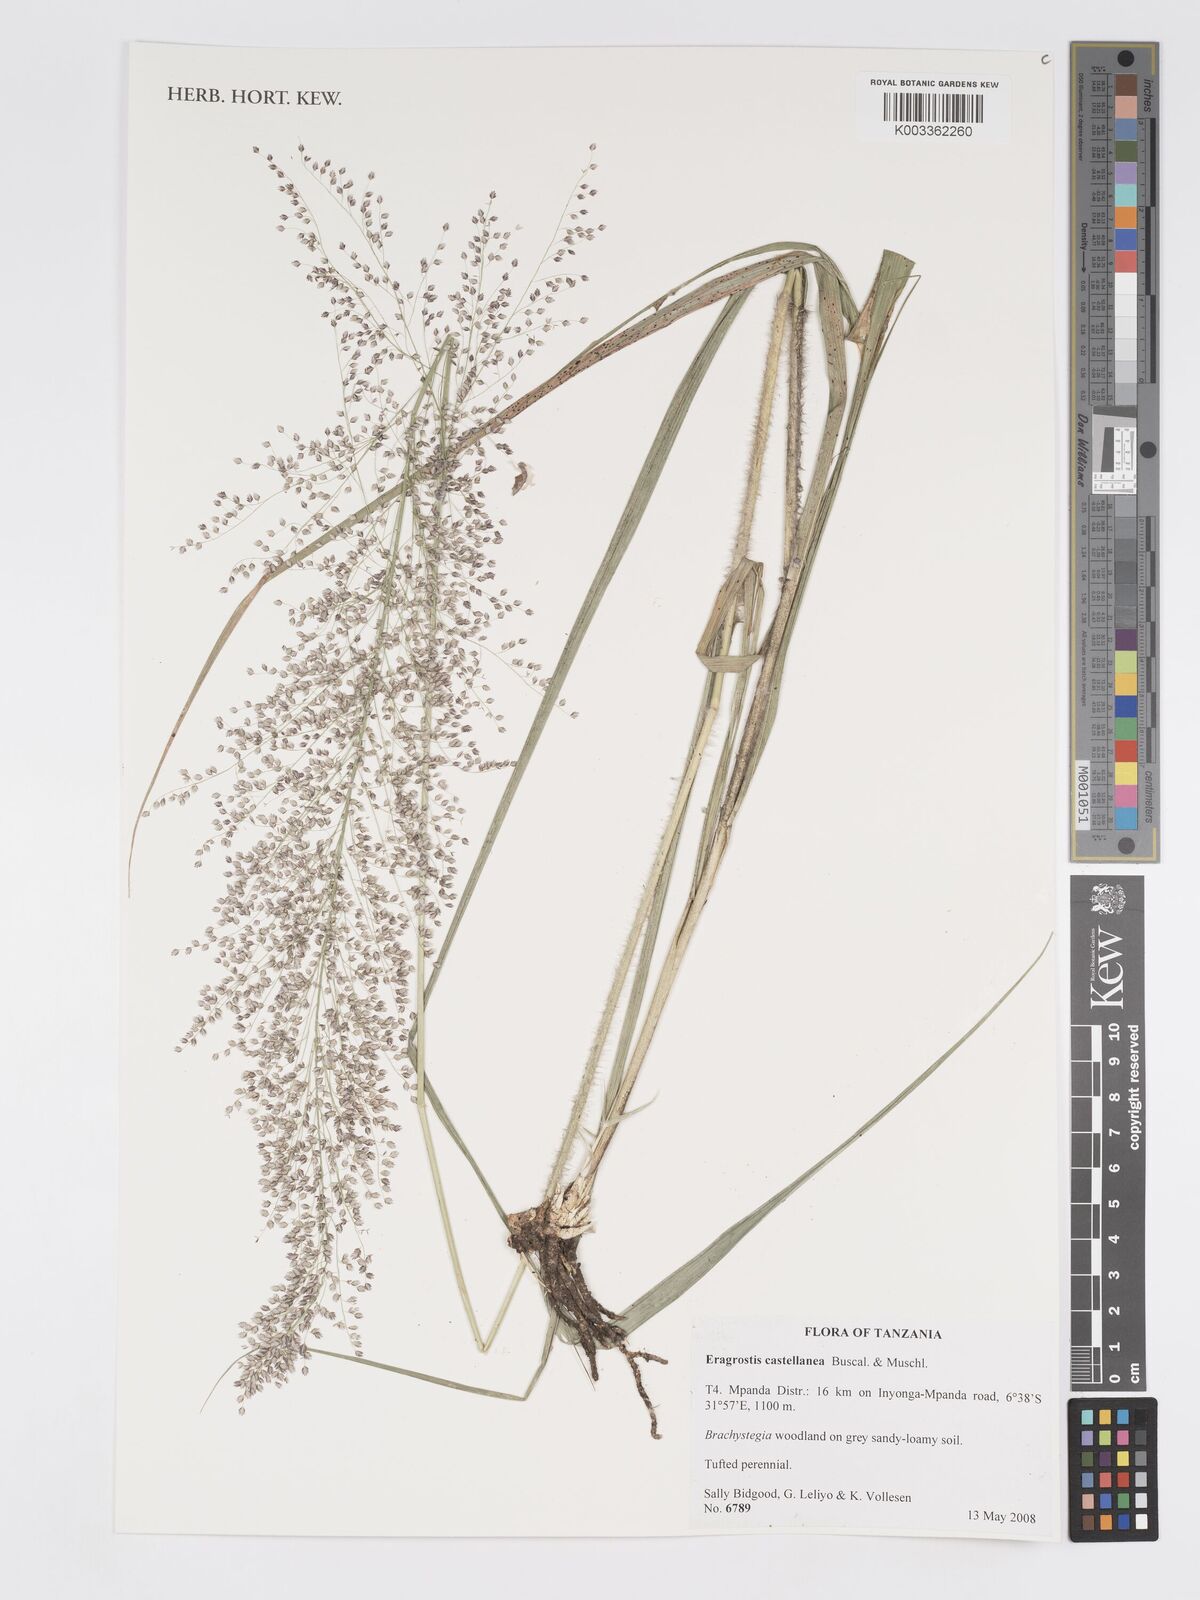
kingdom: Plantae
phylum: Tracheophyta
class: Liliopsida
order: Poales
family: Poaceae
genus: Eragrostis
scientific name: Eragrostis castellaneana
